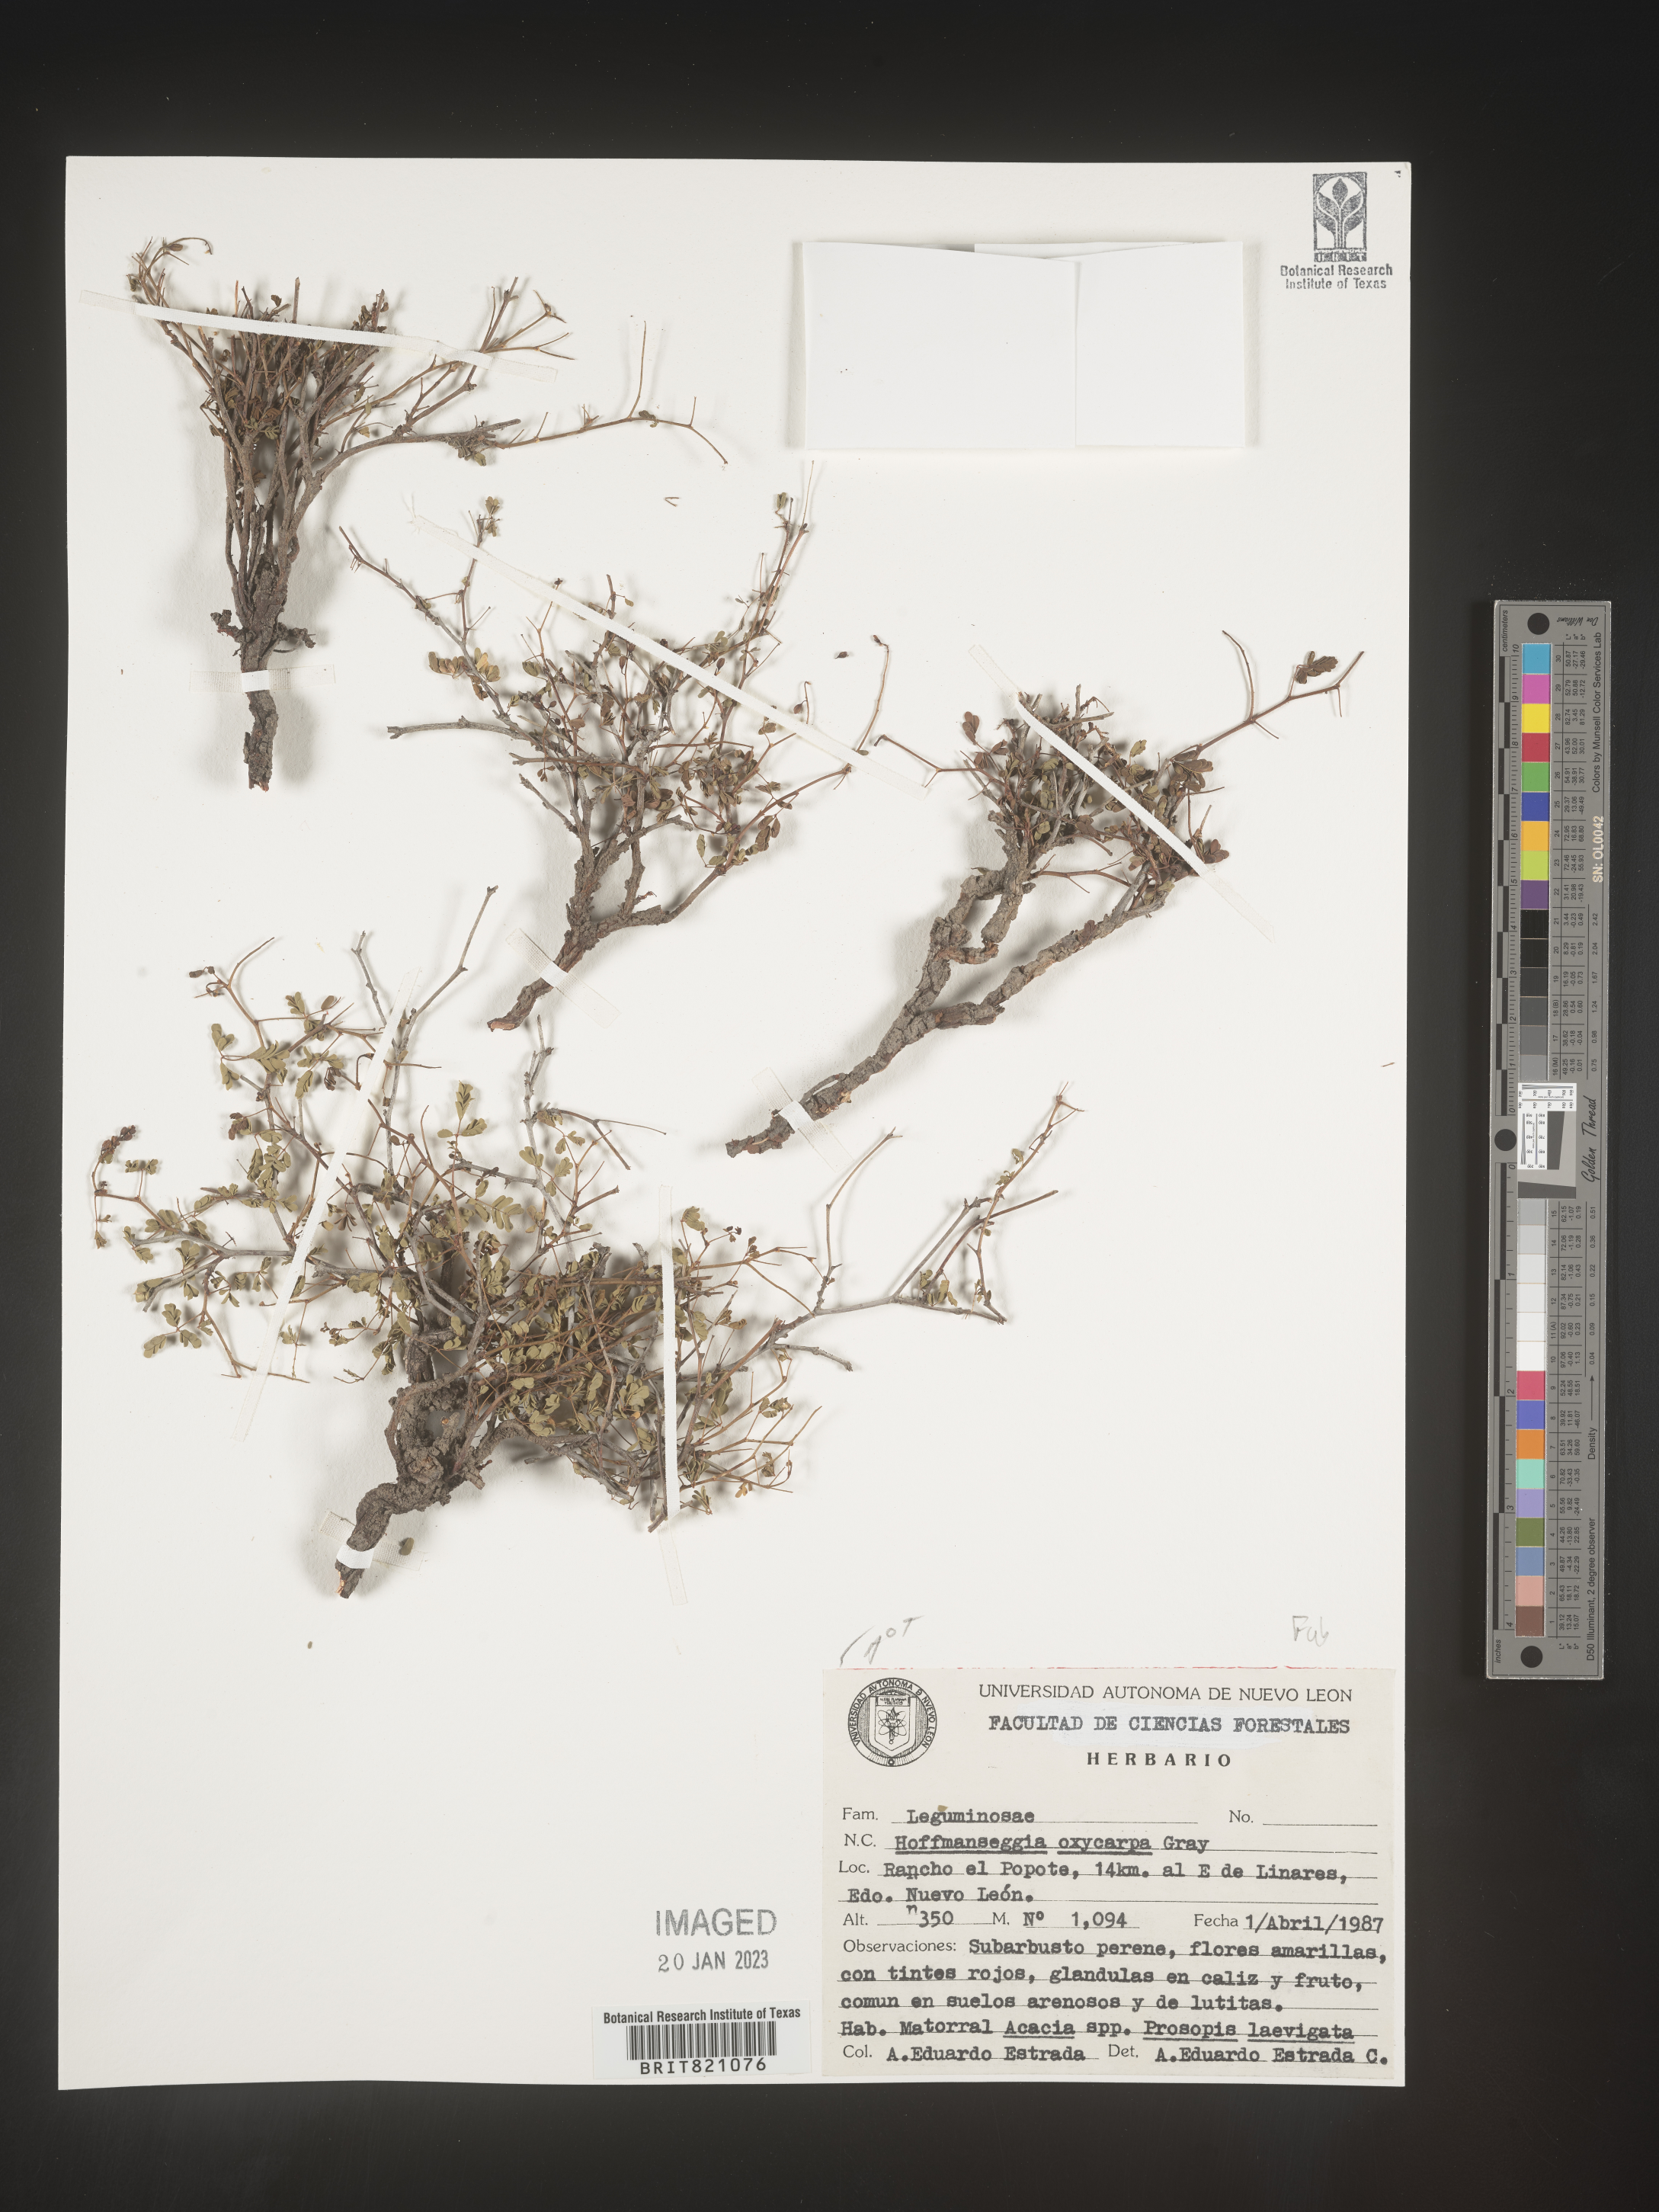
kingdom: Plantae
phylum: Tracheophyta
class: Magnoliopsida
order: Fabales
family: Fabaceae
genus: Hoffmannseggia
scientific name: Hoffmannseggia
